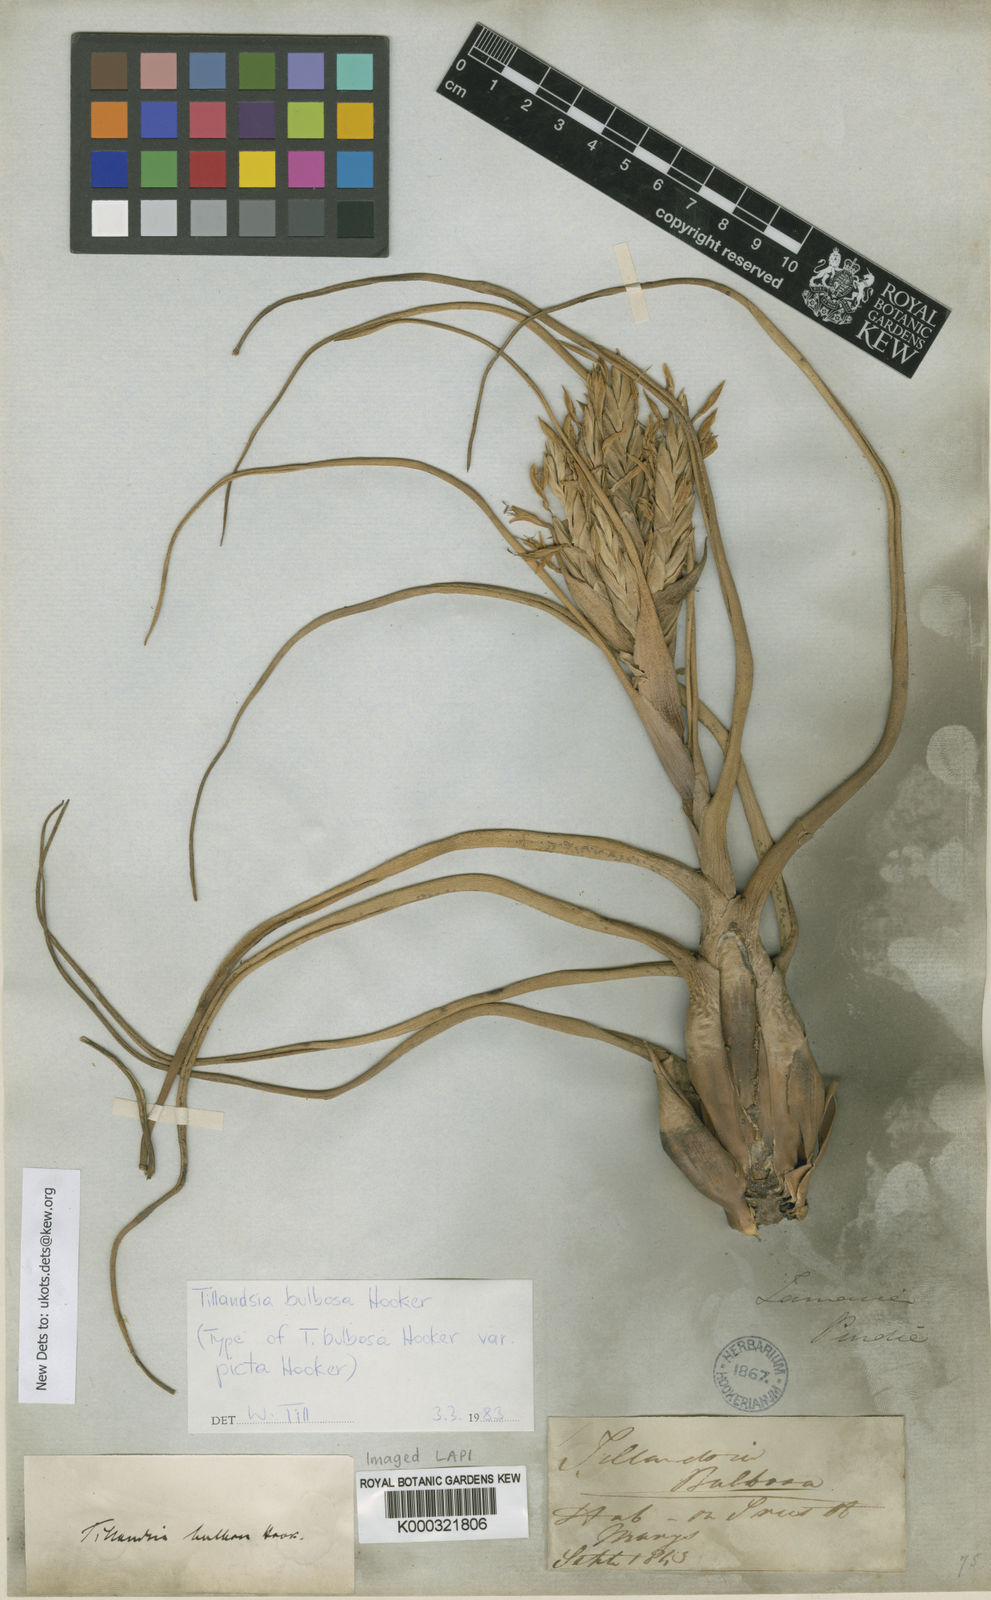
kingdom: Plantae
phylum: Tracheophyta
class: Liliopsida
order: Poales
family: Bromeliaceae
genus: Tillandsia
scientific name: Tillandsia bulbosa
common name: Bulbous airplant
